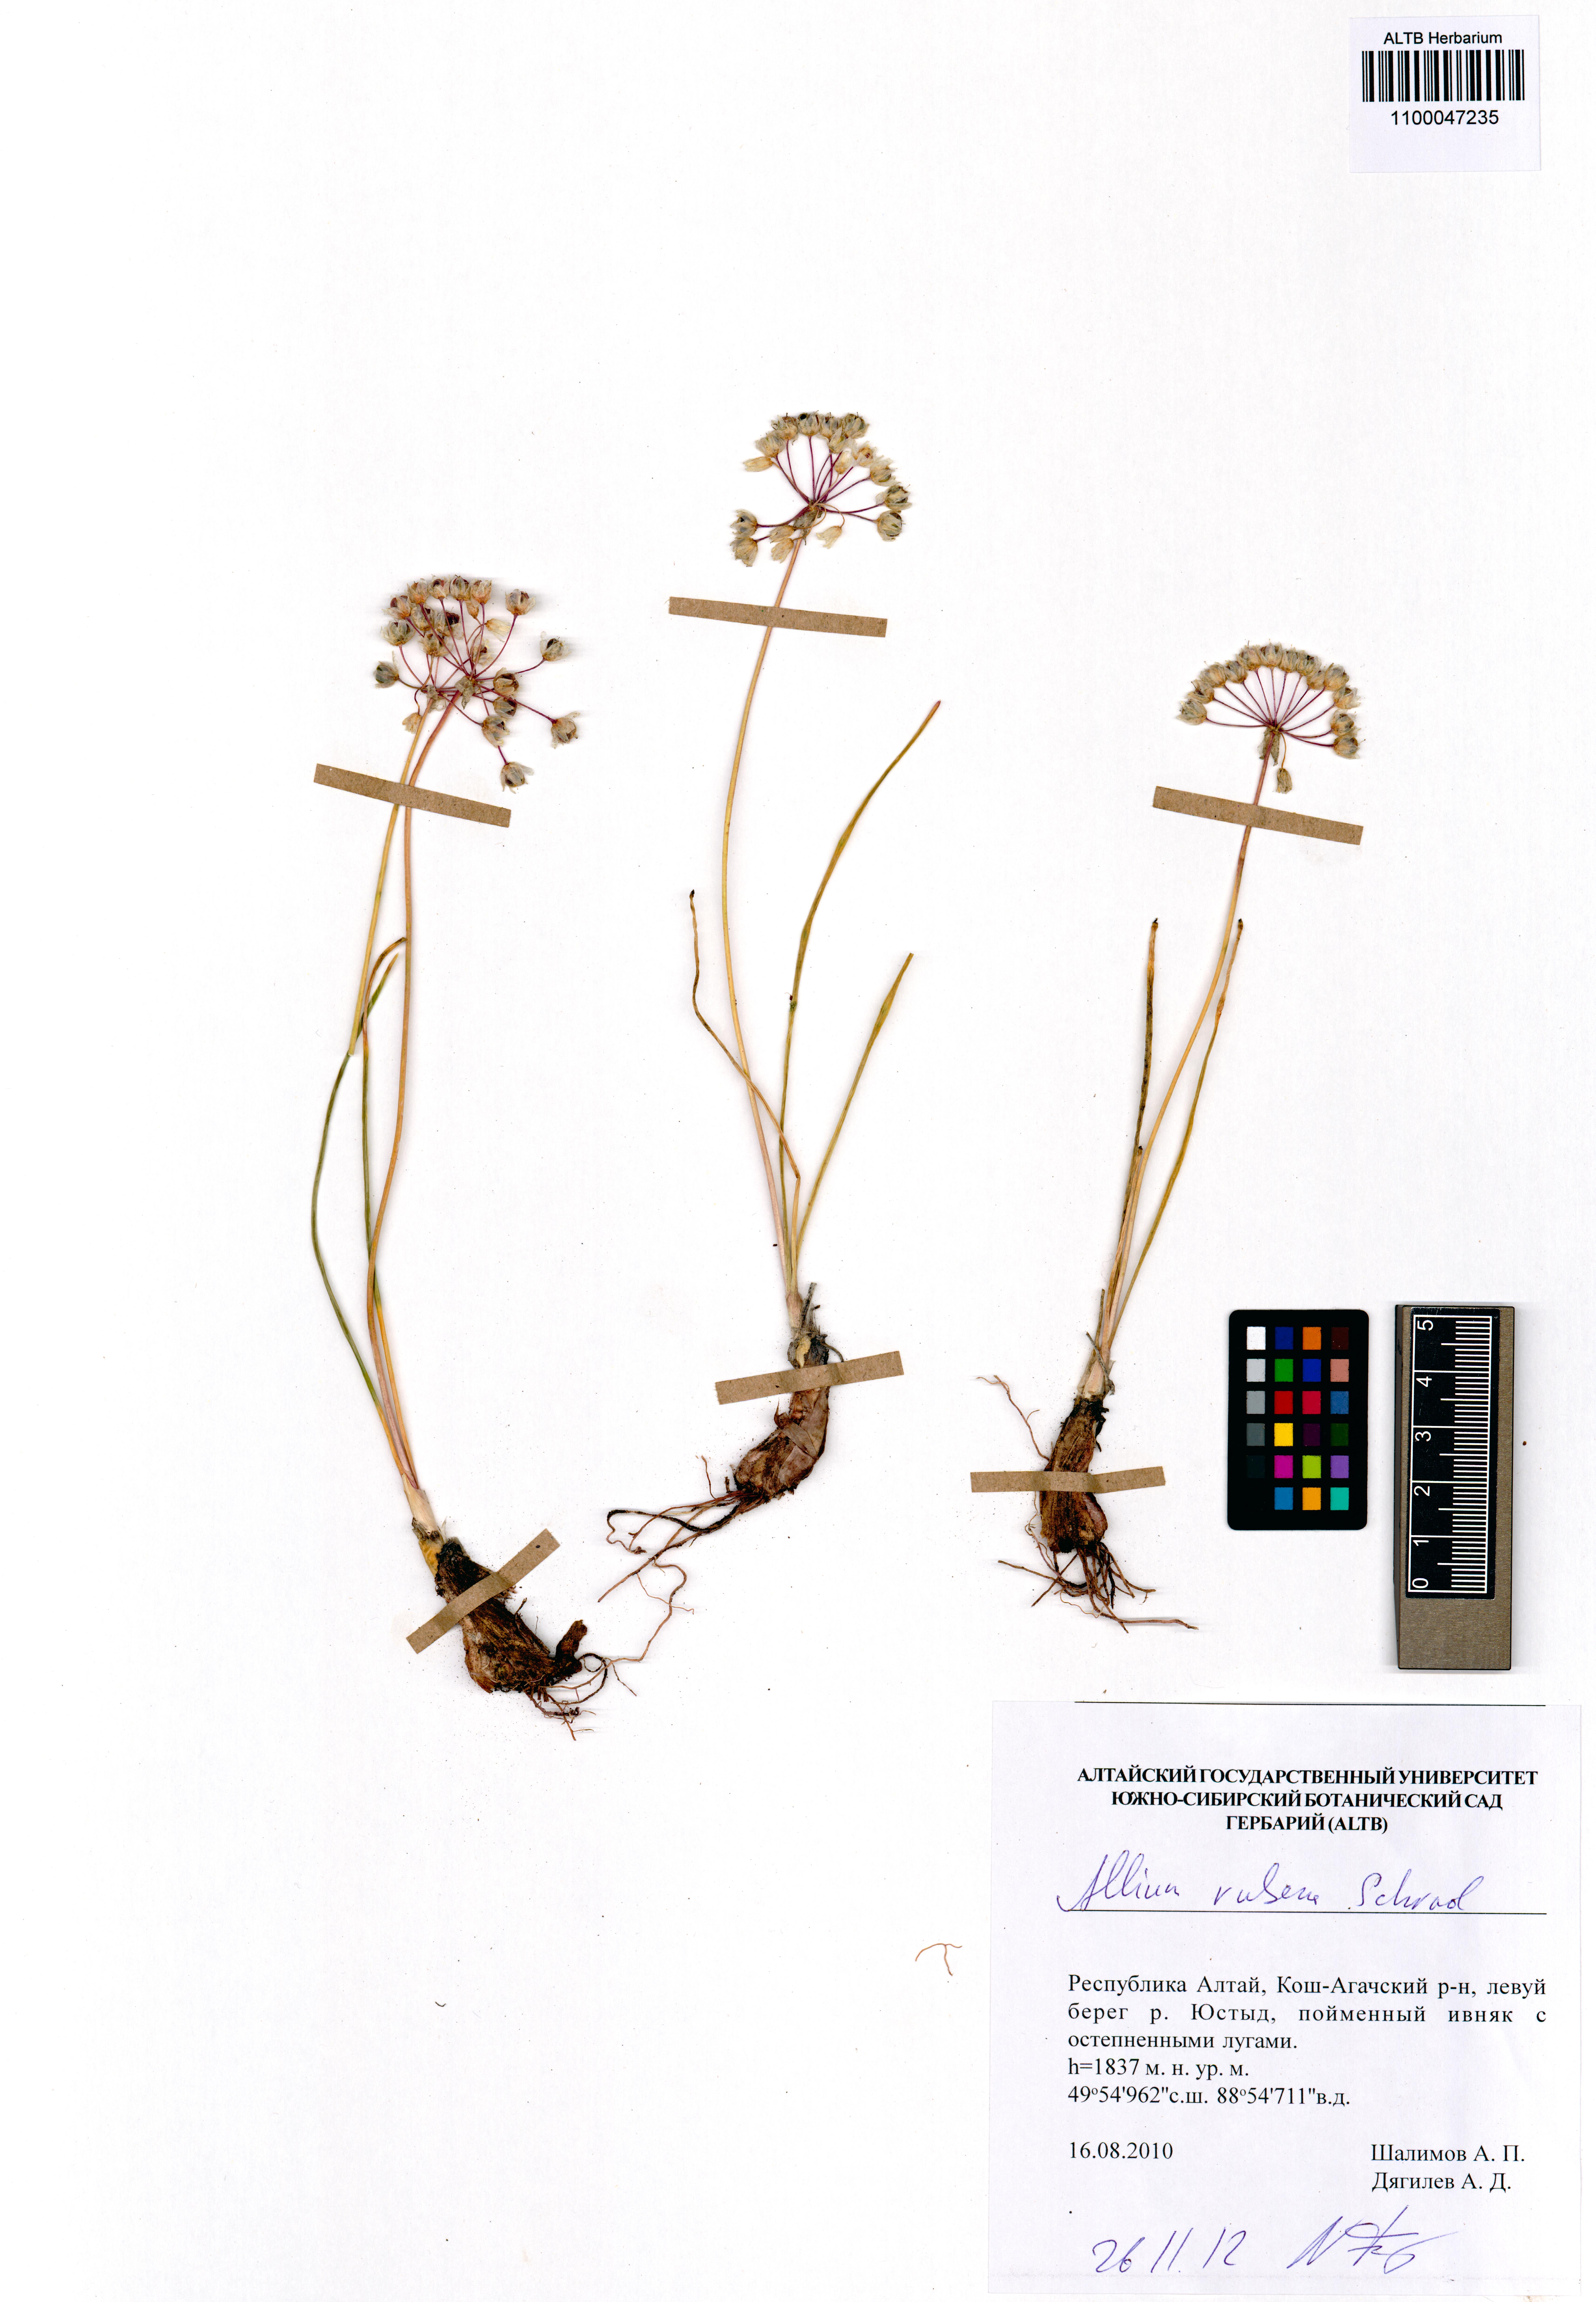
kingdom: Plantae
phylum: Tracheophyta
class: Liliopsida
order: Asparagales
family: Amaryllidaceae
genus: Allium
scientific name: Allium rubens
